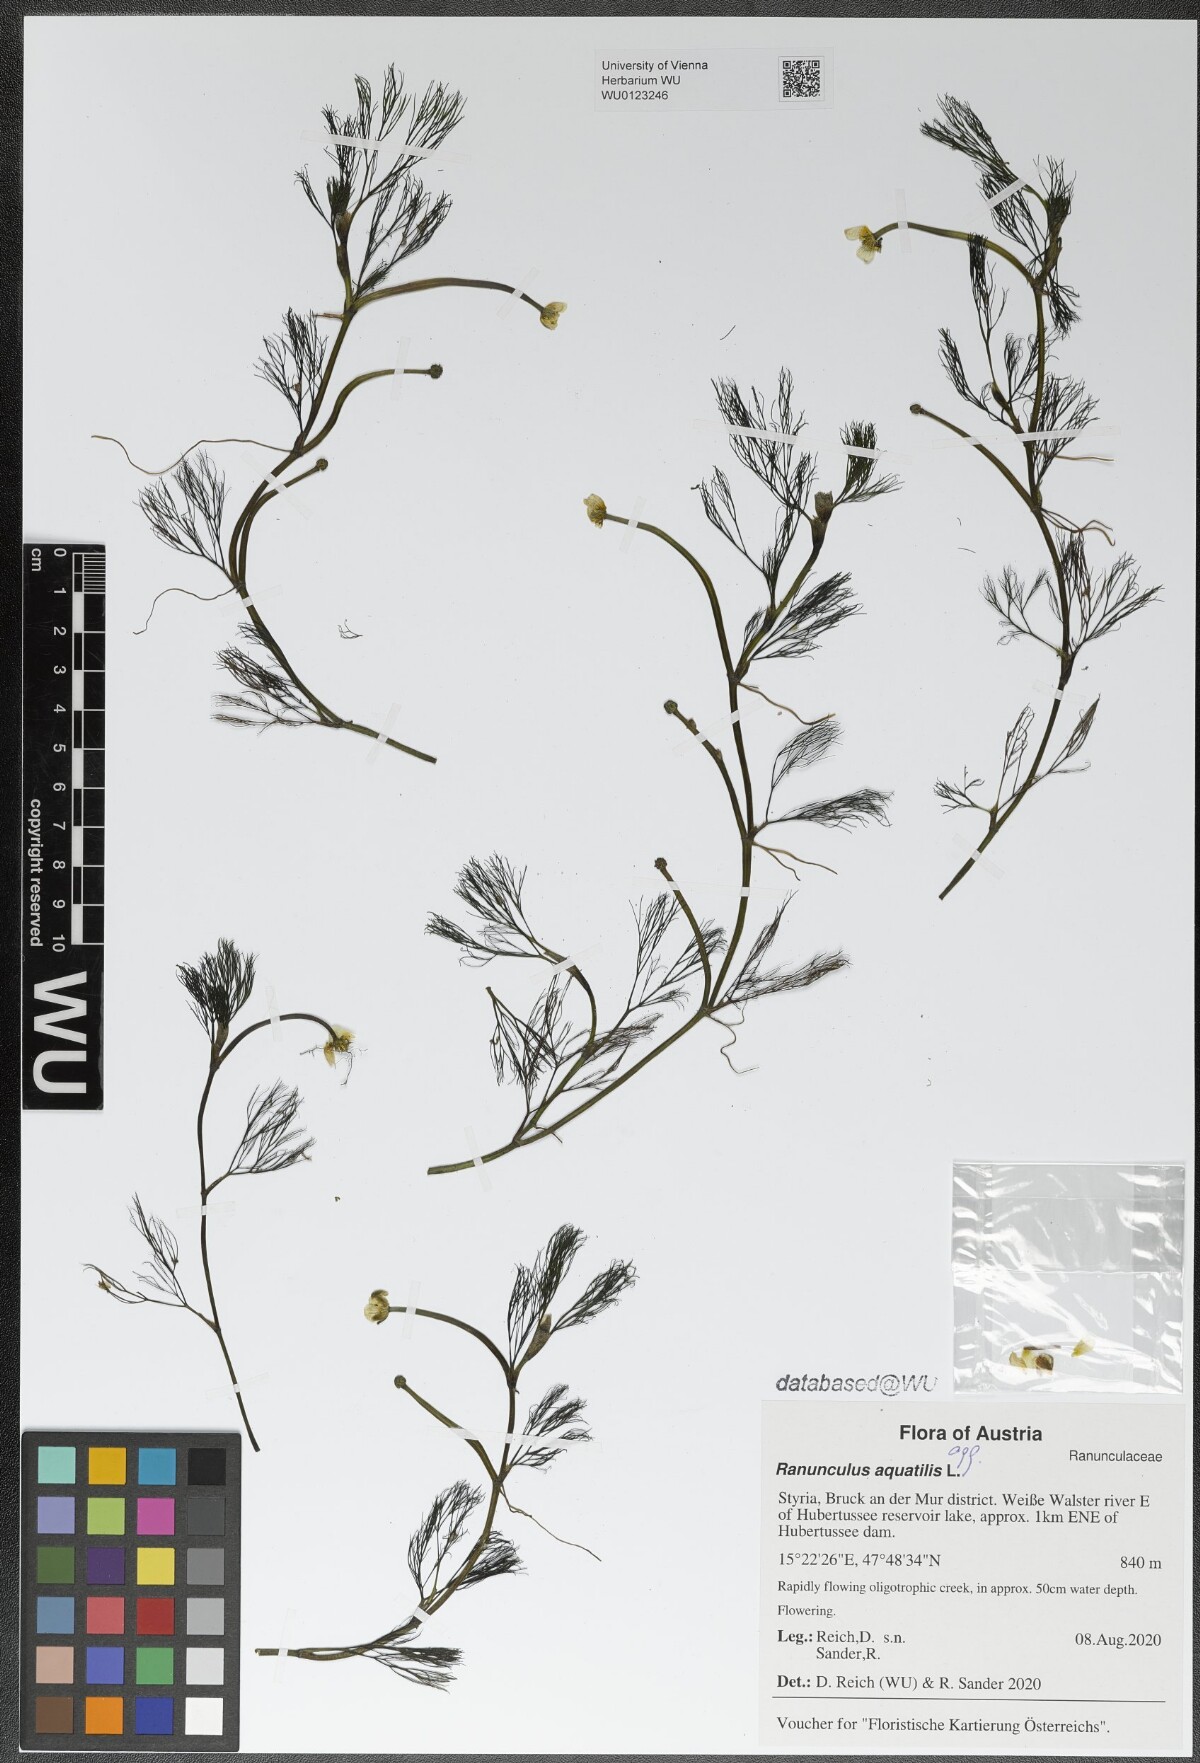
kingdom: Plantae
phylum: Tracheophyta
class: Magnoliopsida
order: Ranunculales
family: Ranunculaceae
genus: Ranunculus
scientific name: Ranunculus aquatilis
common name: Common water-crowfoot
